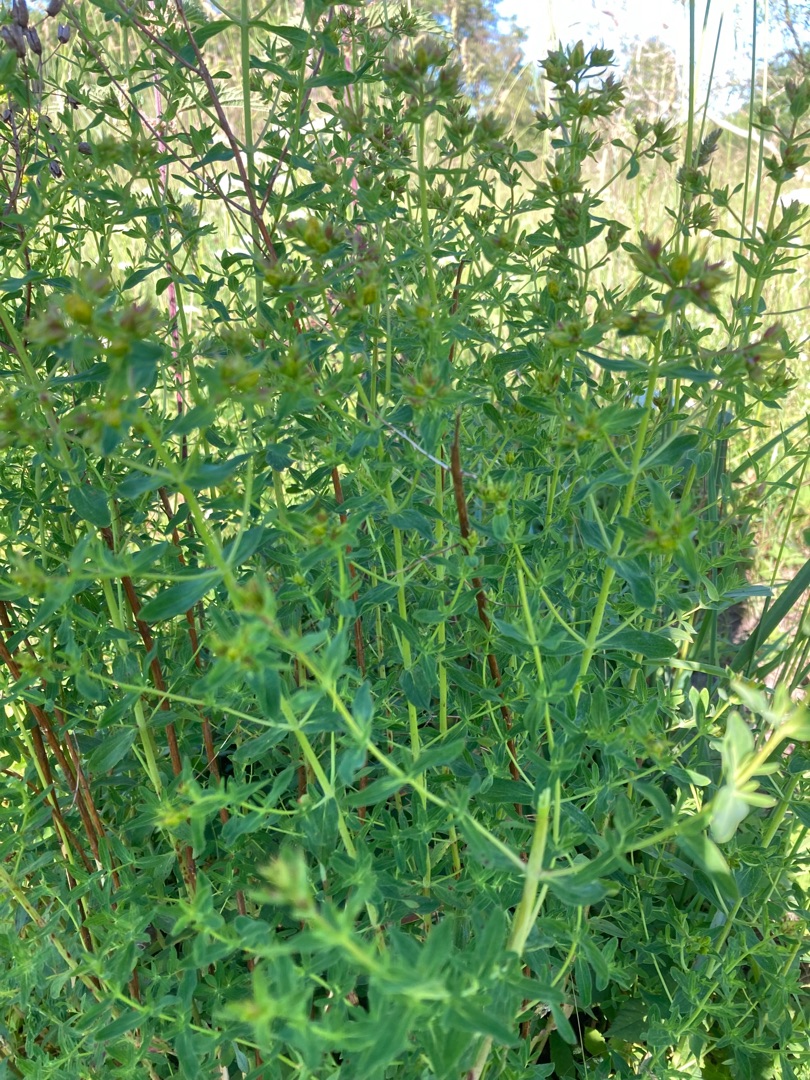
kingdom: Plantae
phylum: Tracheophyta
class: Magnoliopsida
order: Malpighiales
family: Hypericaceae
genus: Hypericum
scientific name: Hypericum perforatum
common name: Prikbladet perikon
